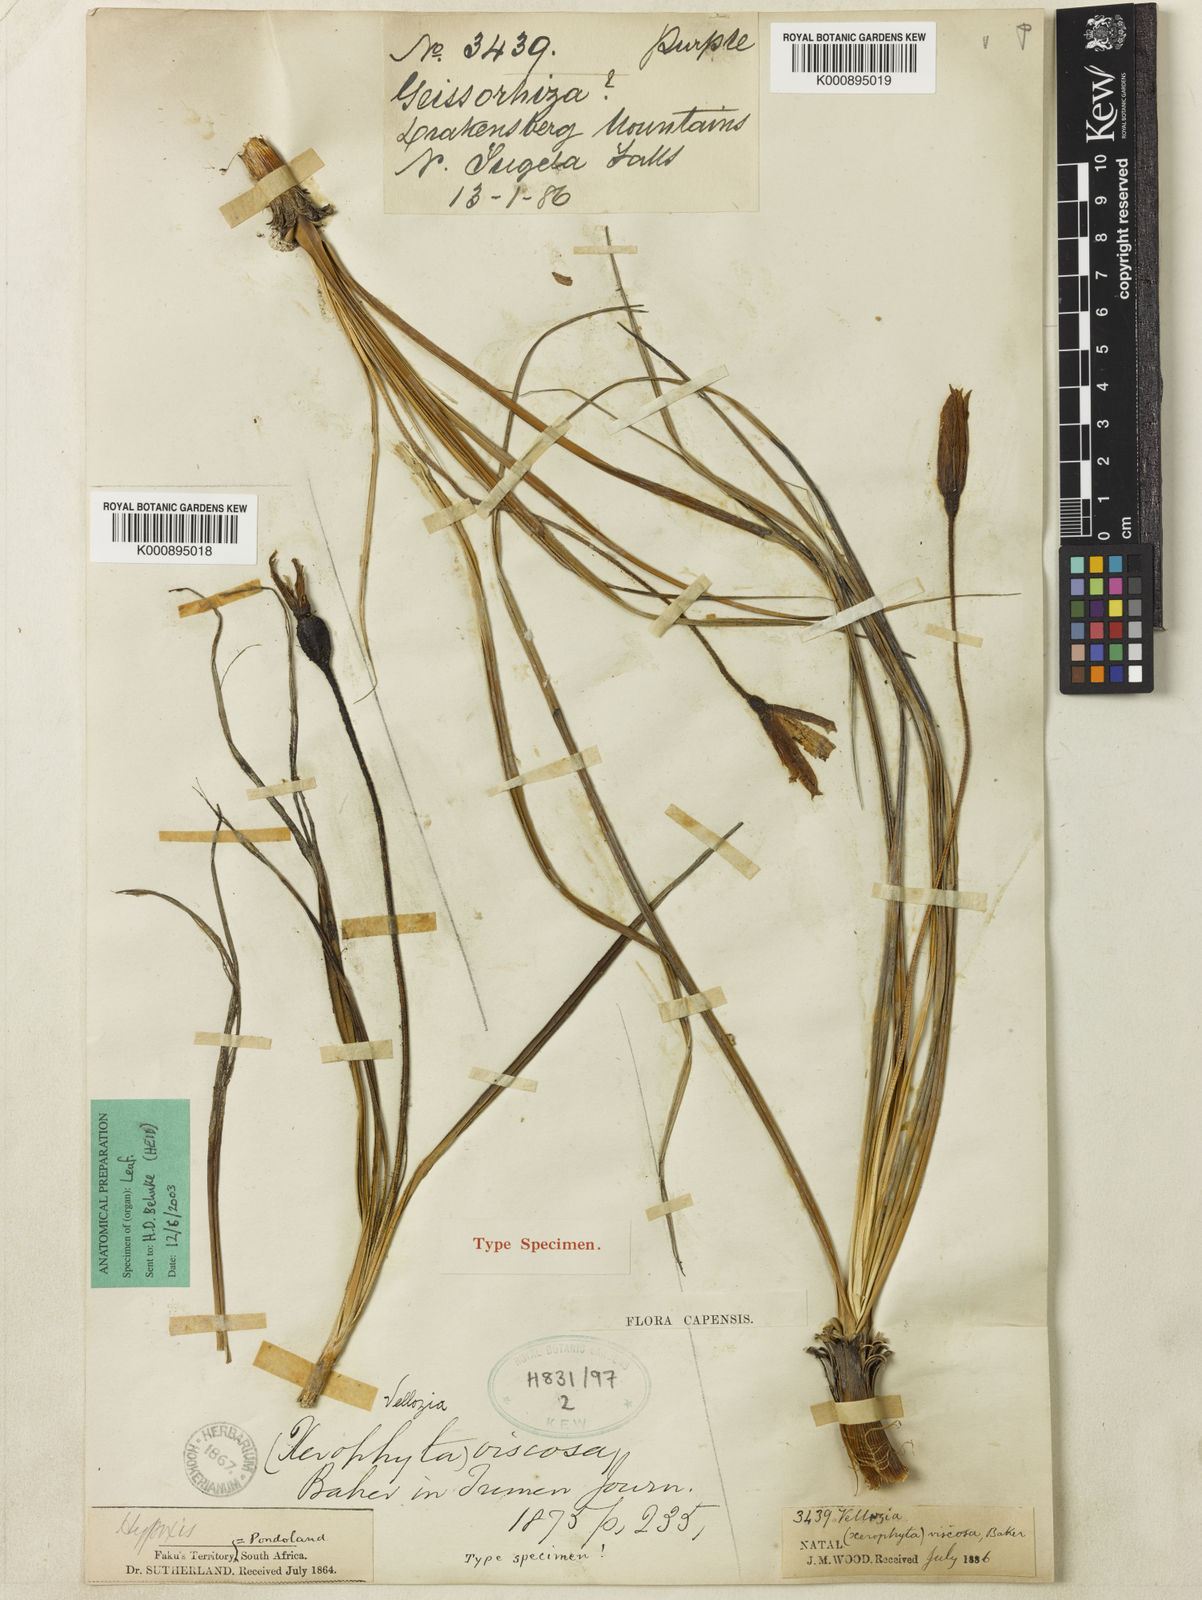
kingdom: Plantae
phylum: Tracheophyta
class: Liliopsida
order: Pandanales
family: Velloziaceae
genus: Xerophyta
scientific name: Xerophyta viscosa
